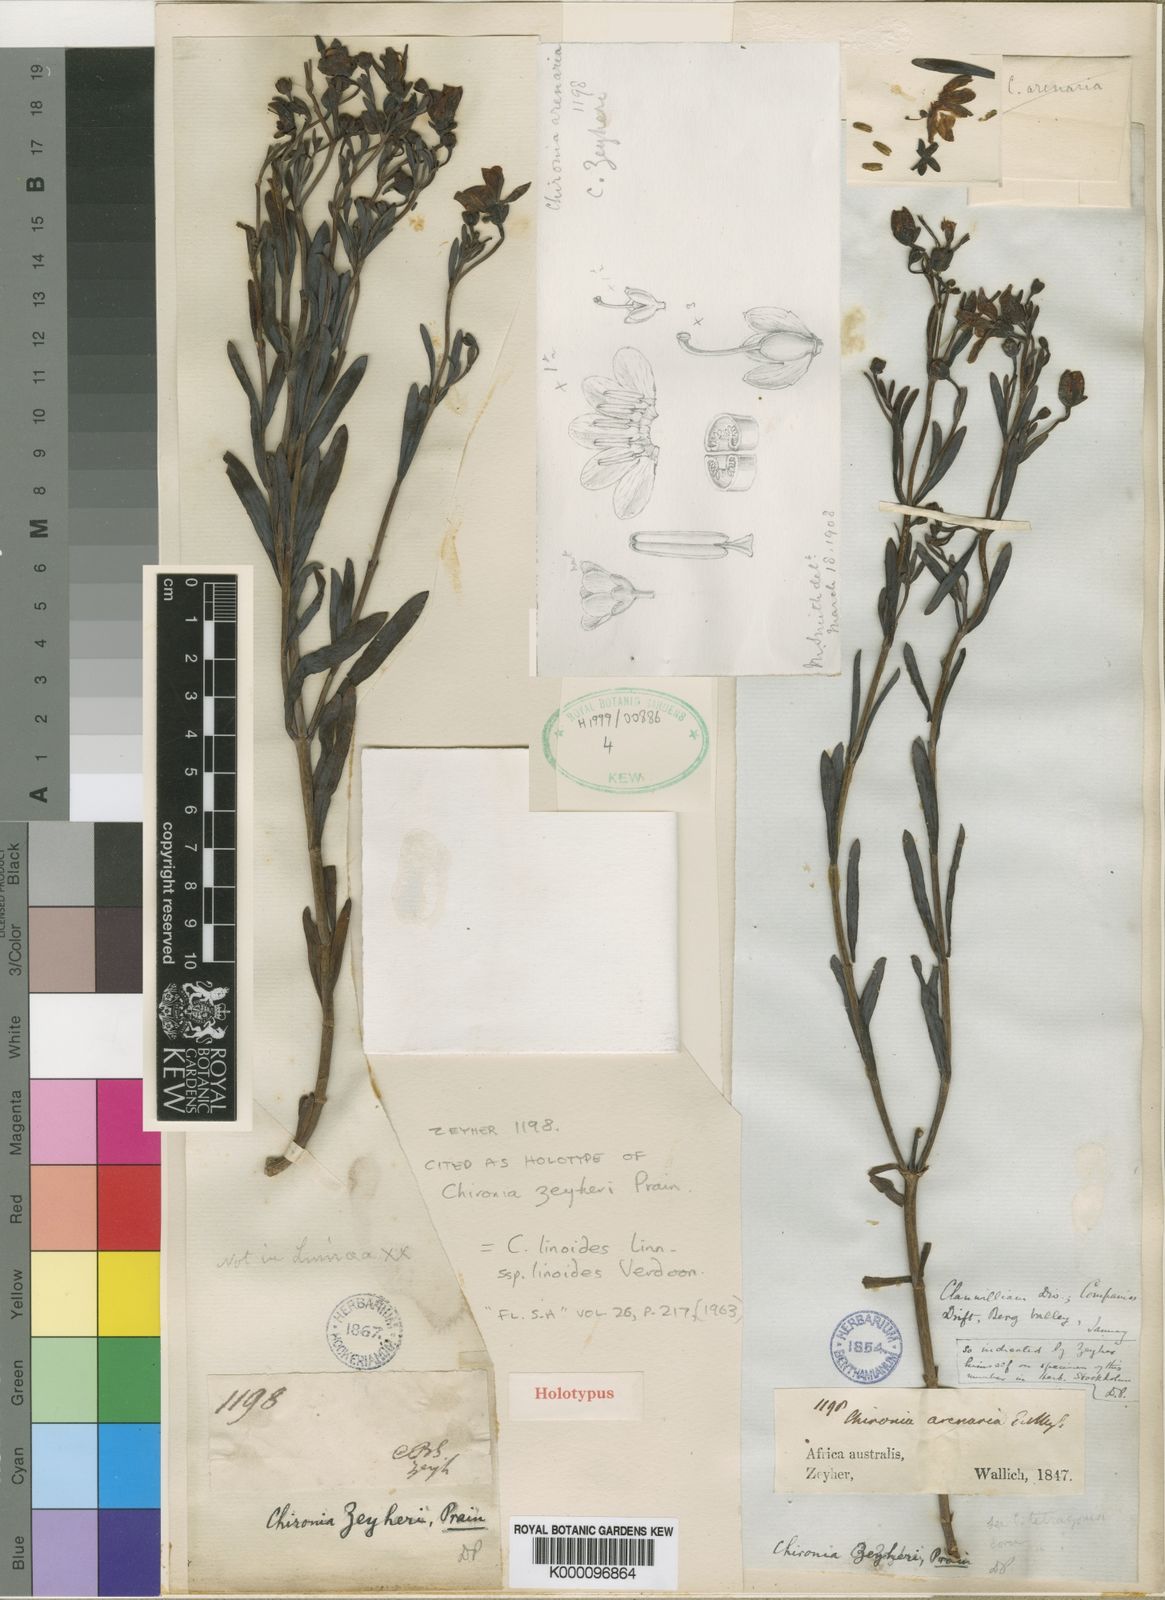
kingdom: Plantae
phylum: Tracheophyta
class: Magnoliopsida
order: Gentianales
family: Gentianaceae
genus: Chironia
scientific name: Chironia linoides
